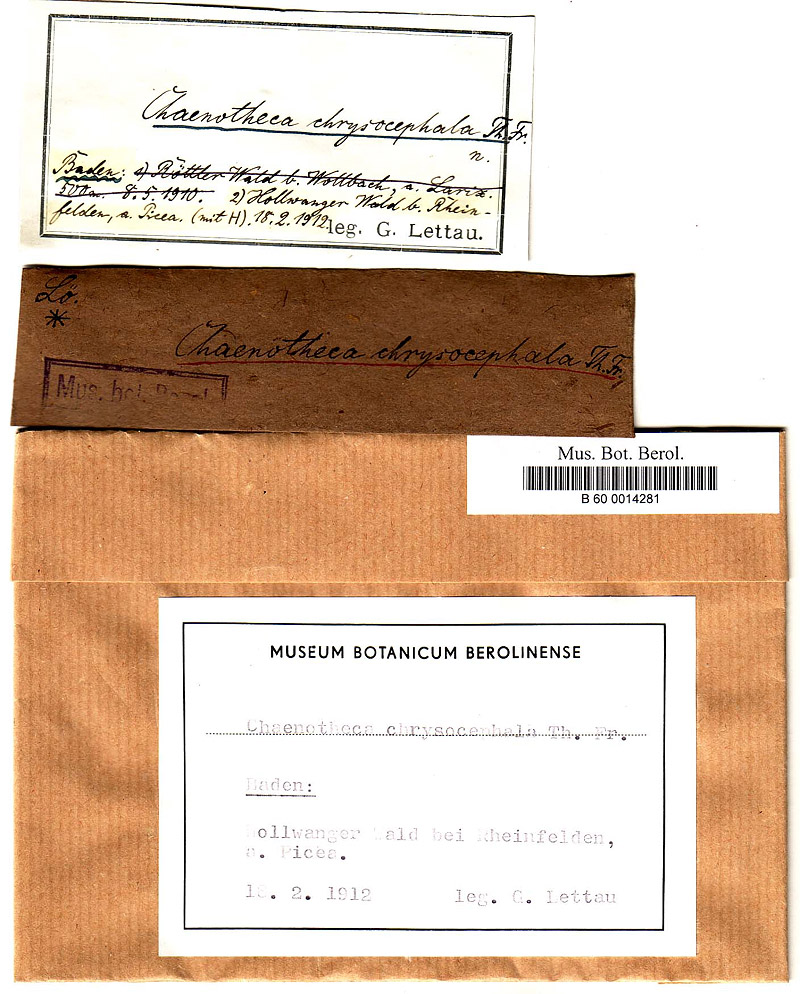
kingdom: Fungi
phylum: Ascomycota
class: Coniocybomycetes
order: Coniocybales
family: Coniocybaceae
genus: Chaenotheca
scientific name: Chaenotheca chrysocephala
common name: Canary stubble lichen
